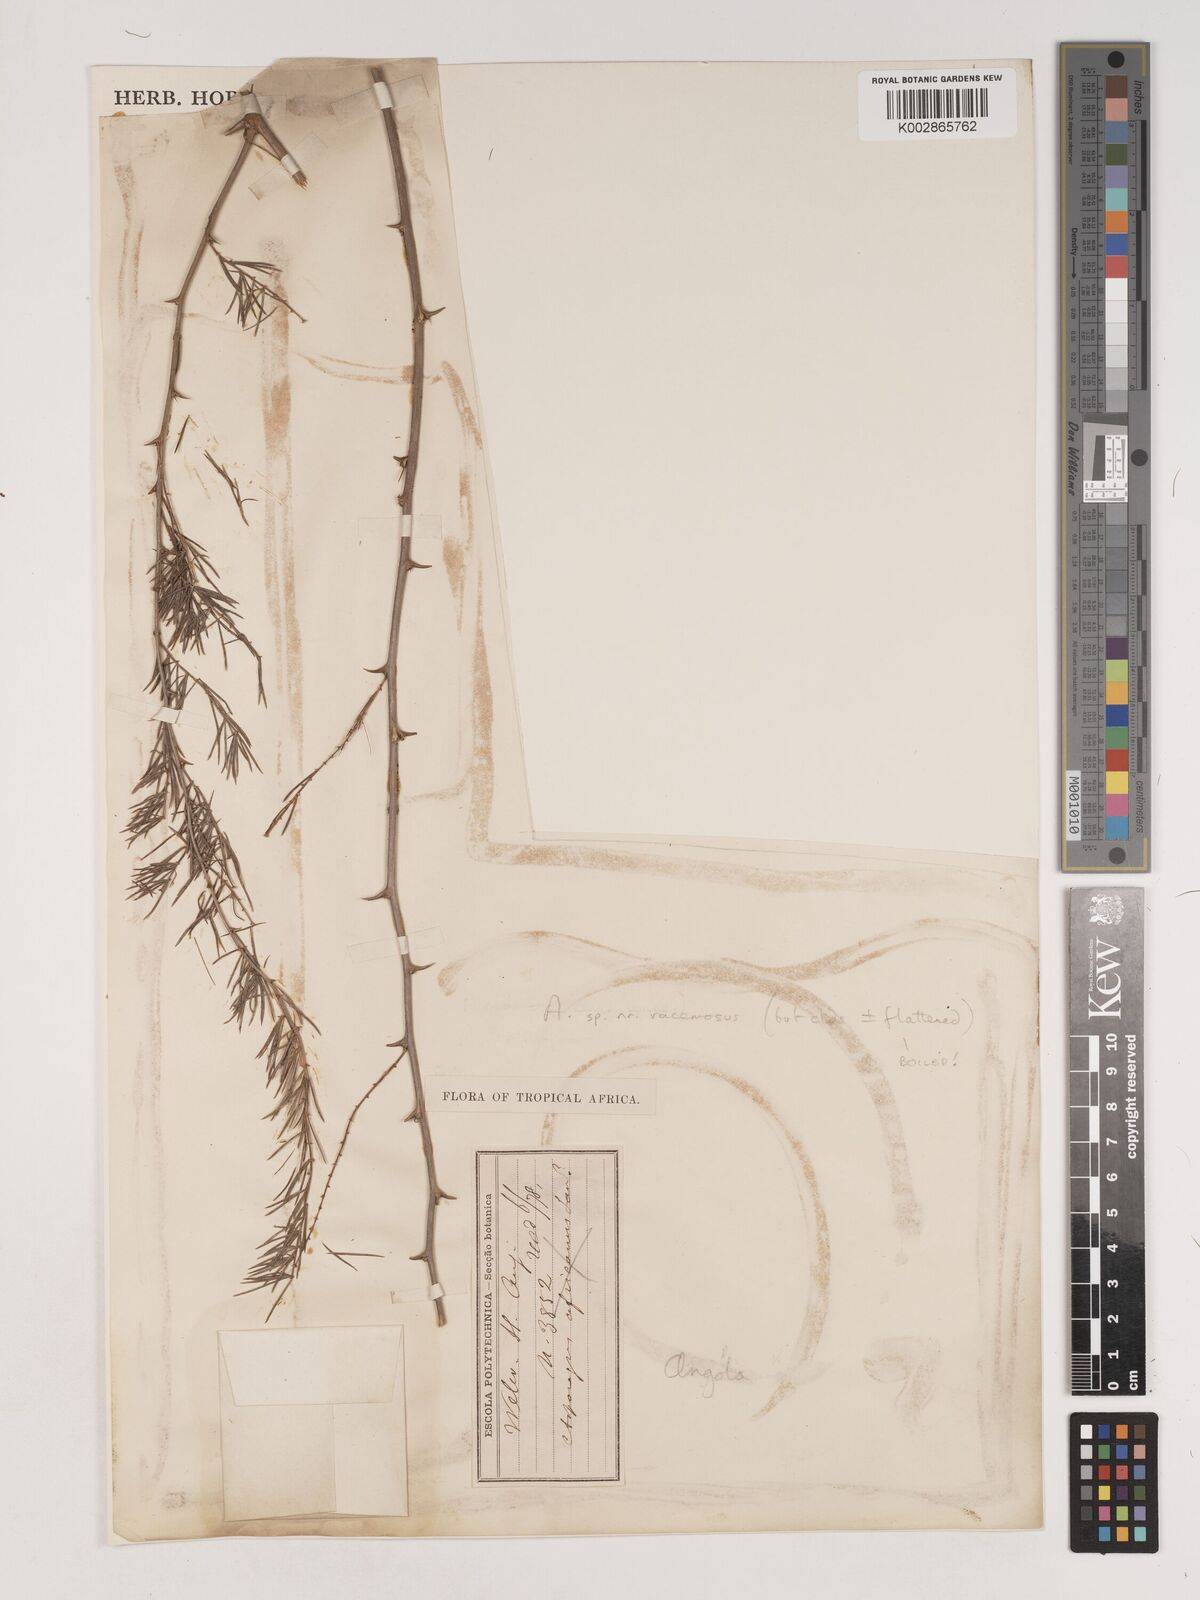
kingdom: Plantae
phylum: Tracheophyta
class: Liliopsida
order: Asparagales
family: Asparagaceae
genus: Asparagus
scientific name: Asparagus racemosus
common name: Asparagus-fern
